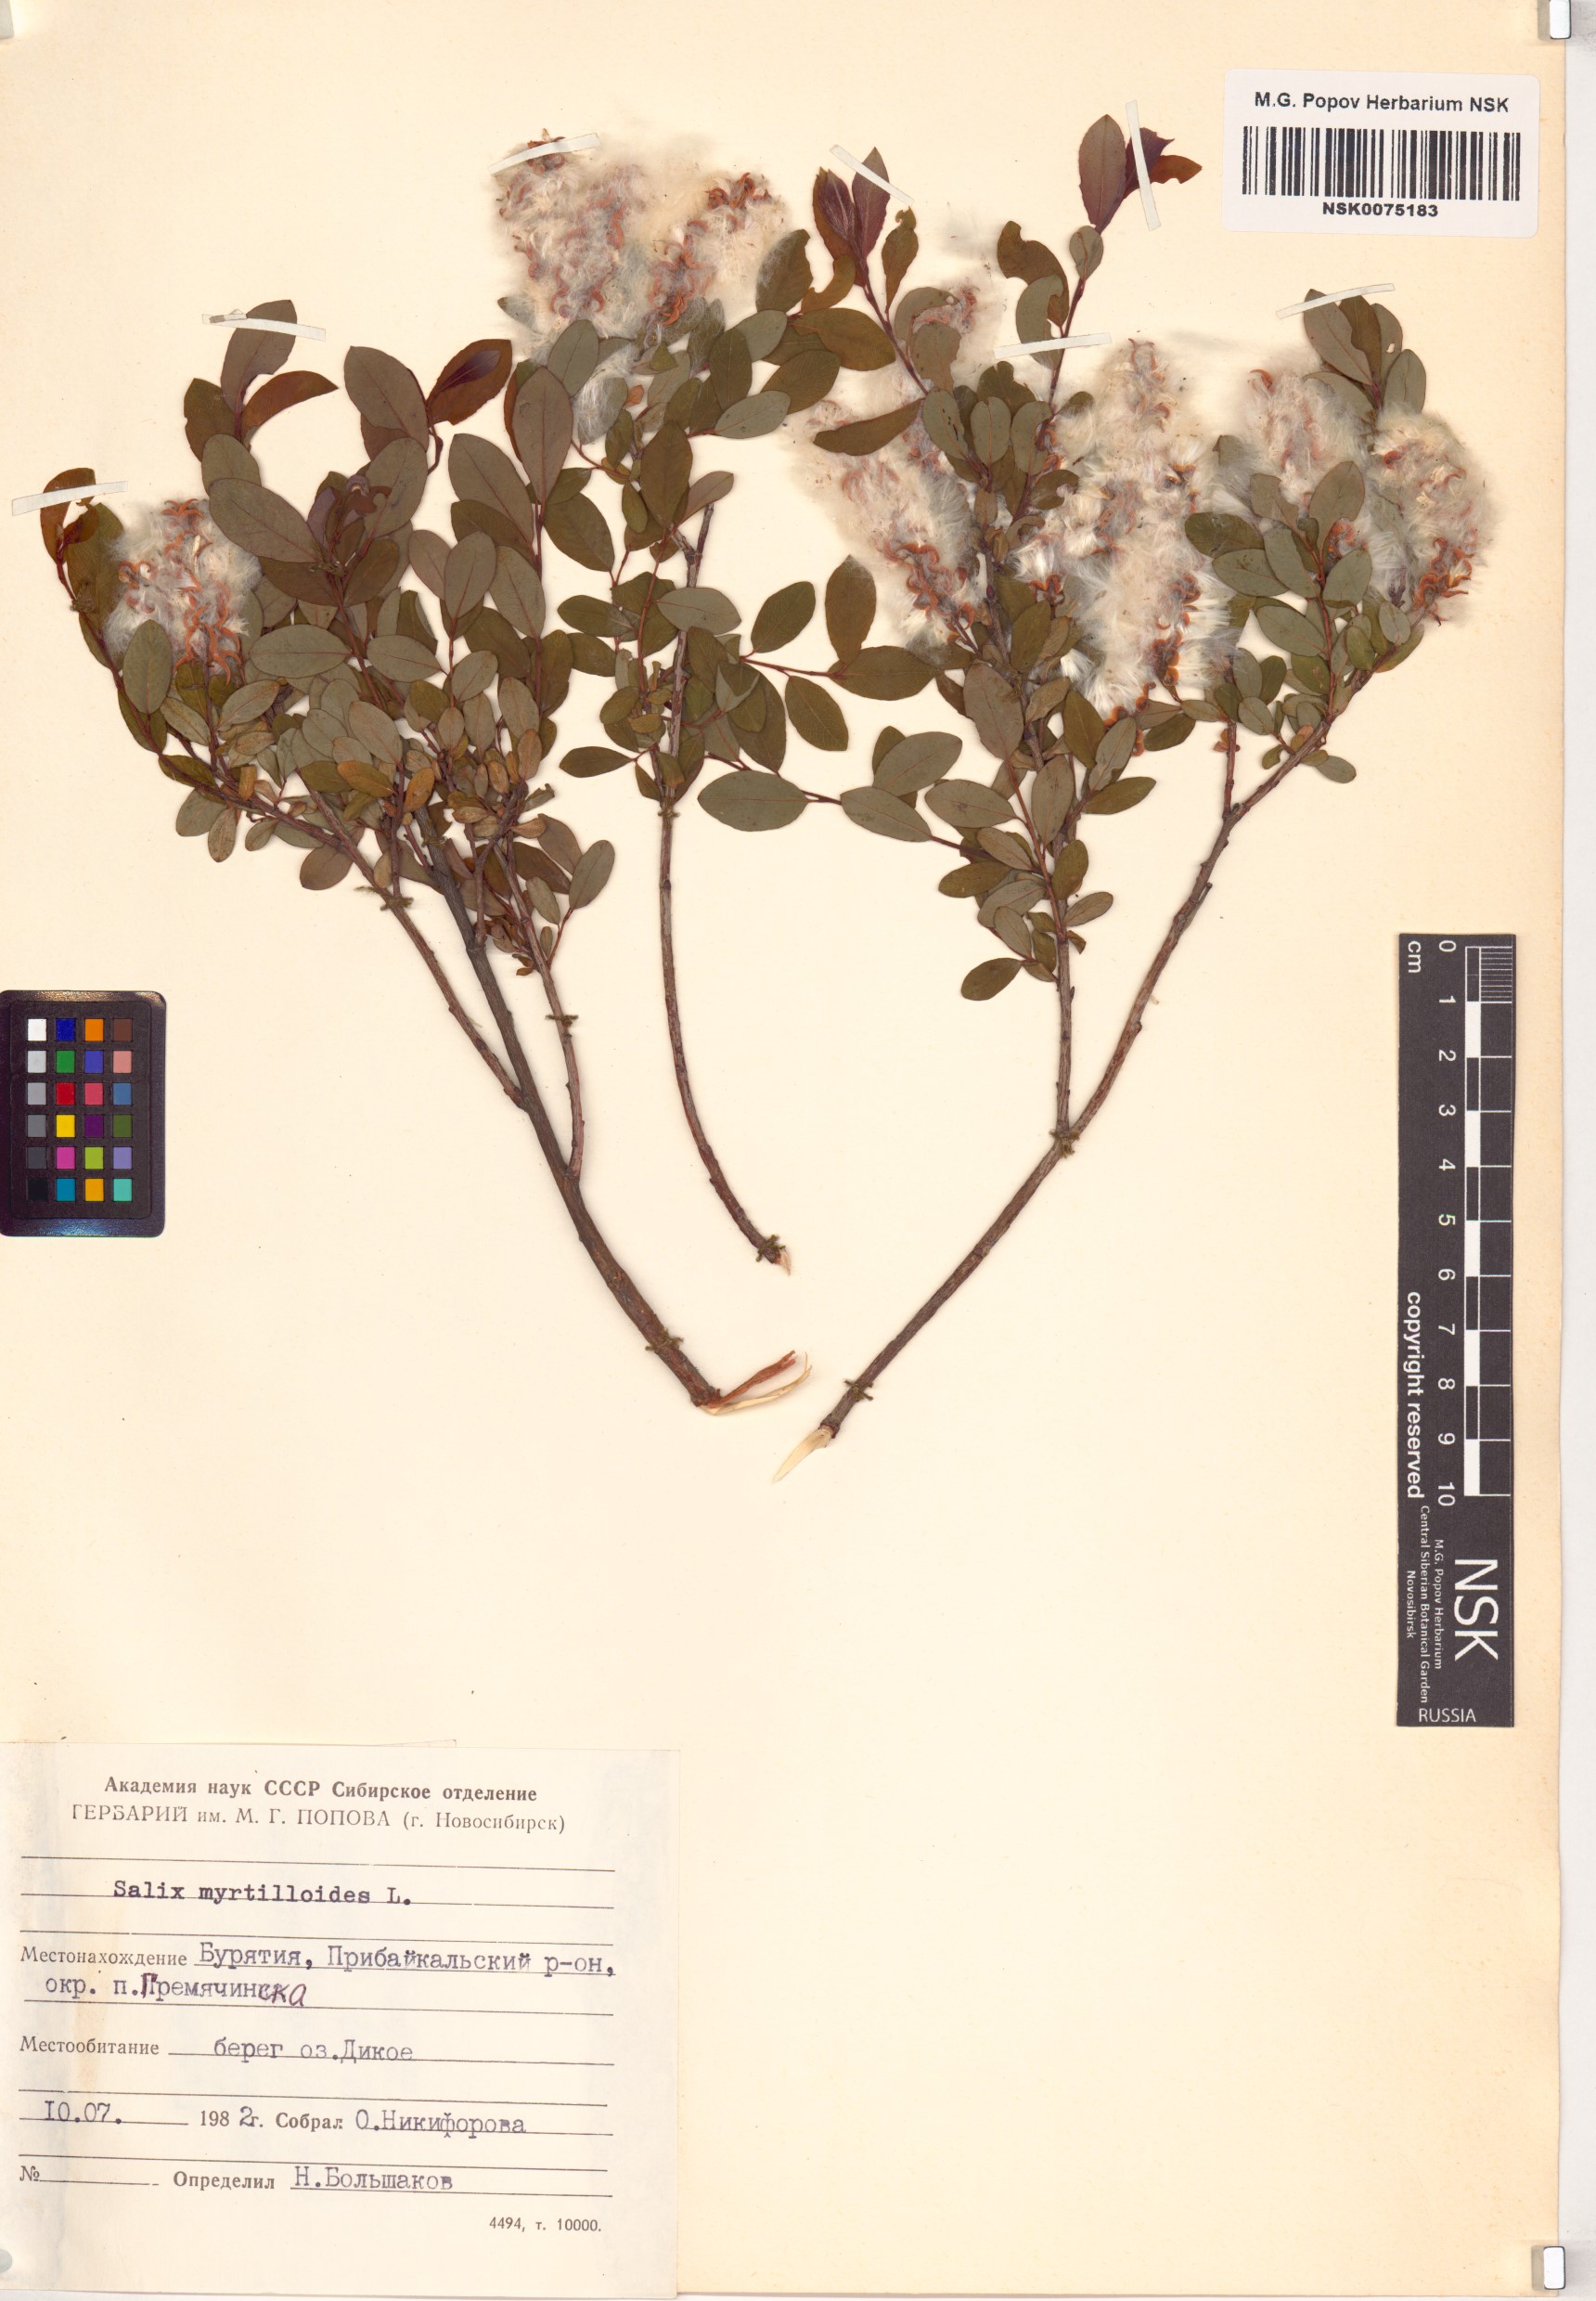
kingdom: Plantae
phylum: Tracheophyta
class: Magnoliopsida
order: Malpighiales
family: Salicaceae
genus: Salix
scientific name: Salix myrtilloides
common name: Myrtle-leaved willow
